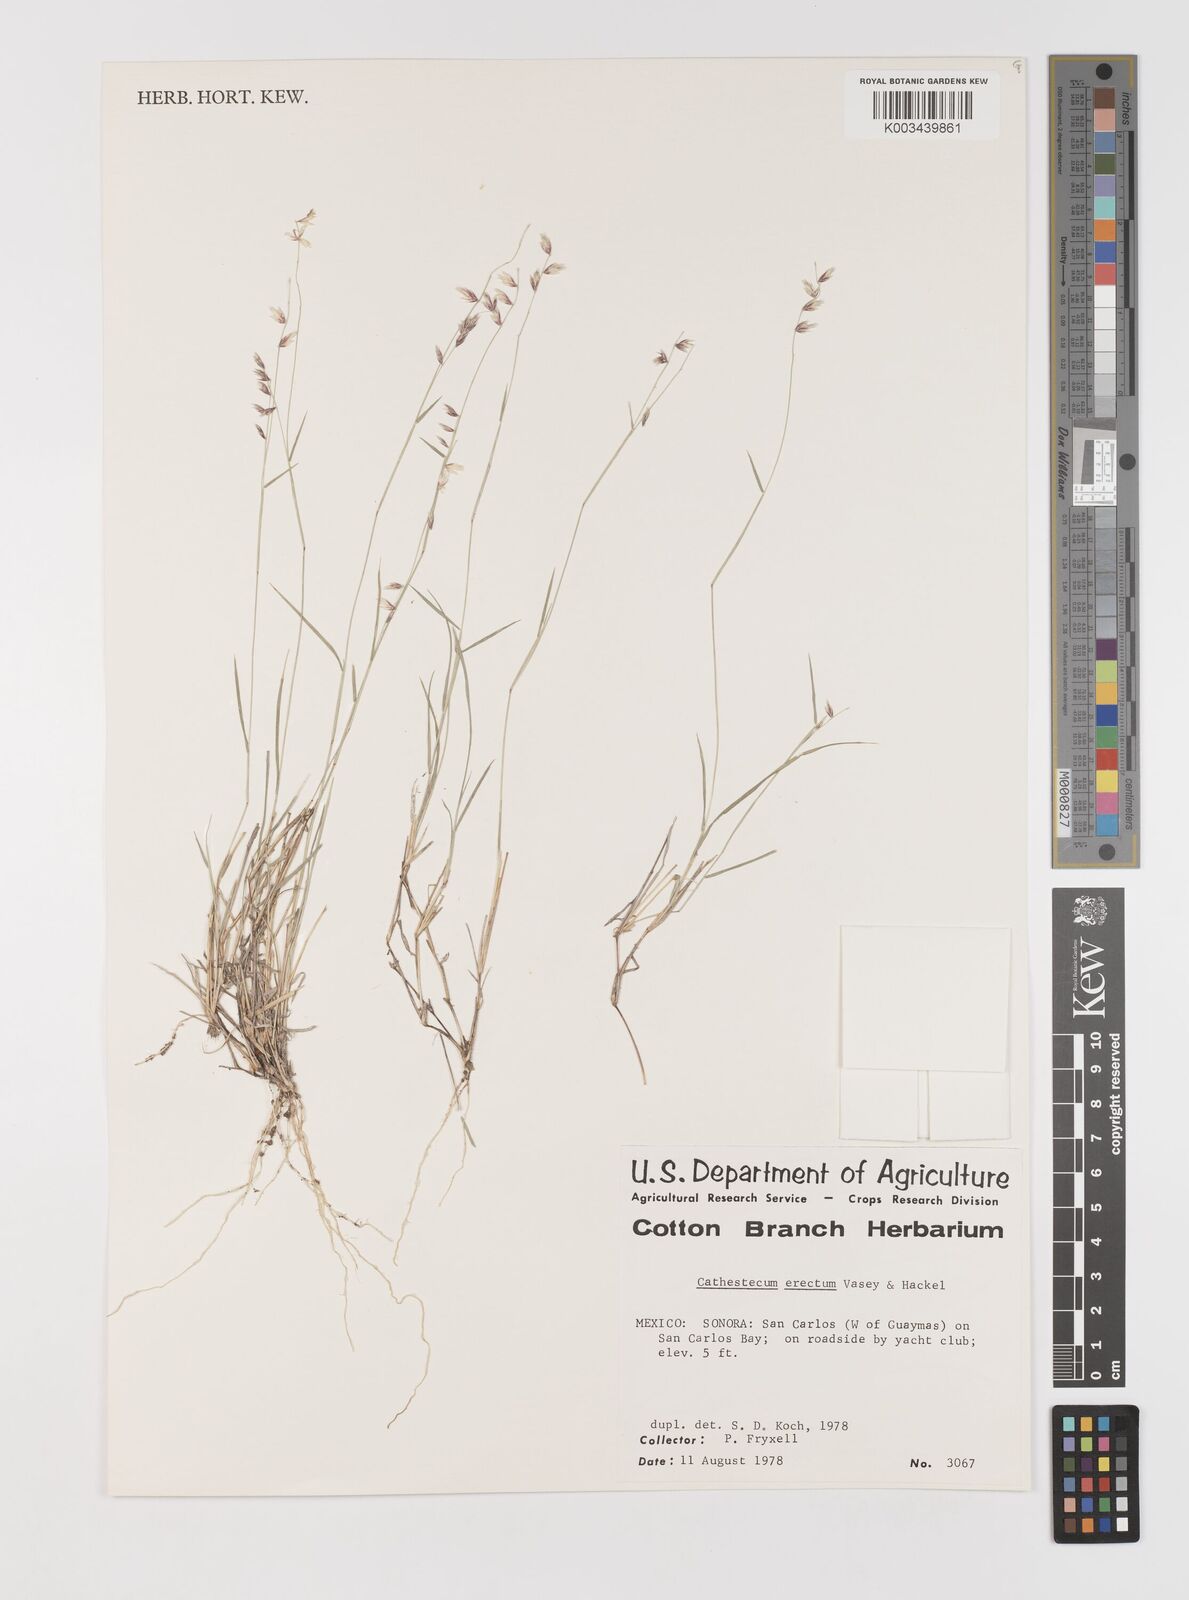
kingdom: Plantae
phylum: Tracheophyta
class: Liliopsida
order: Poales
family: Poaceae
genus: Bouteloua
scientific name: Bouteloua erecta
